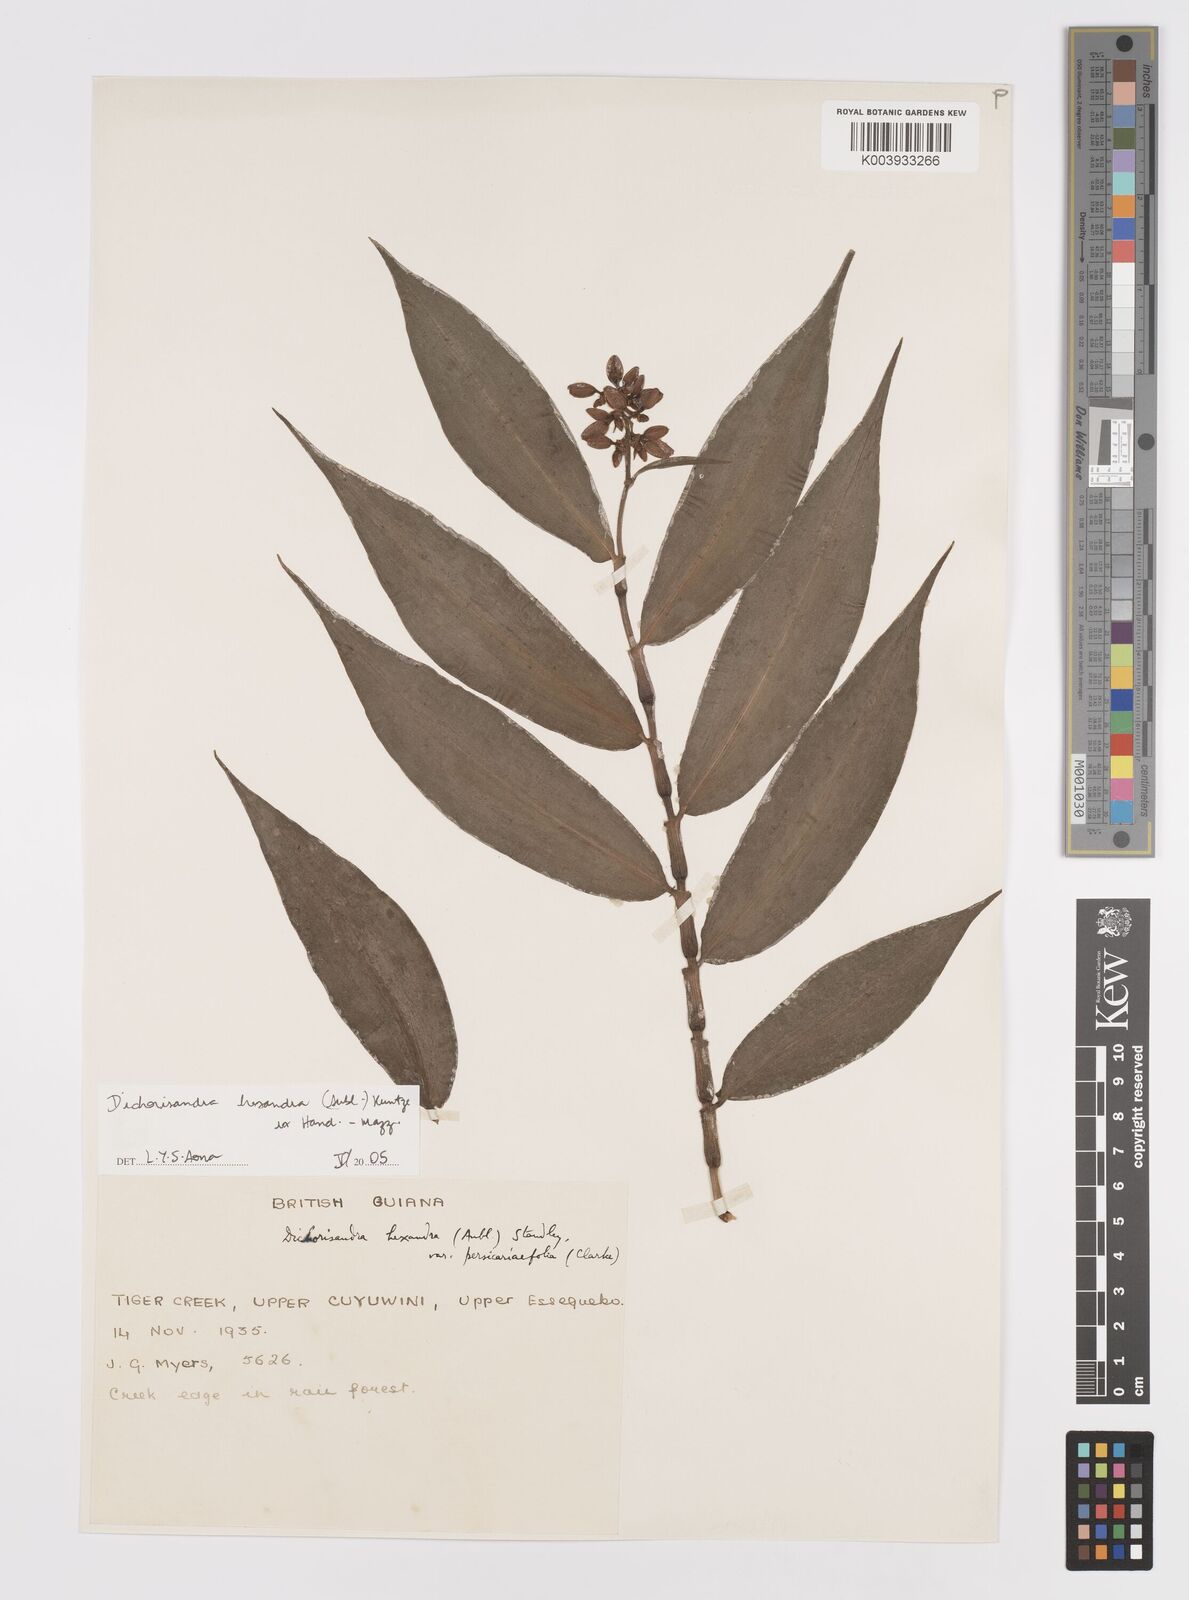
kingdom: Plantae
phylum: Tracheophyta
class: Liliopsida
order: Commelinales
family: Commelinaceae
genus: Dichorisandra
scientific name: Dichorisandra hexandra
